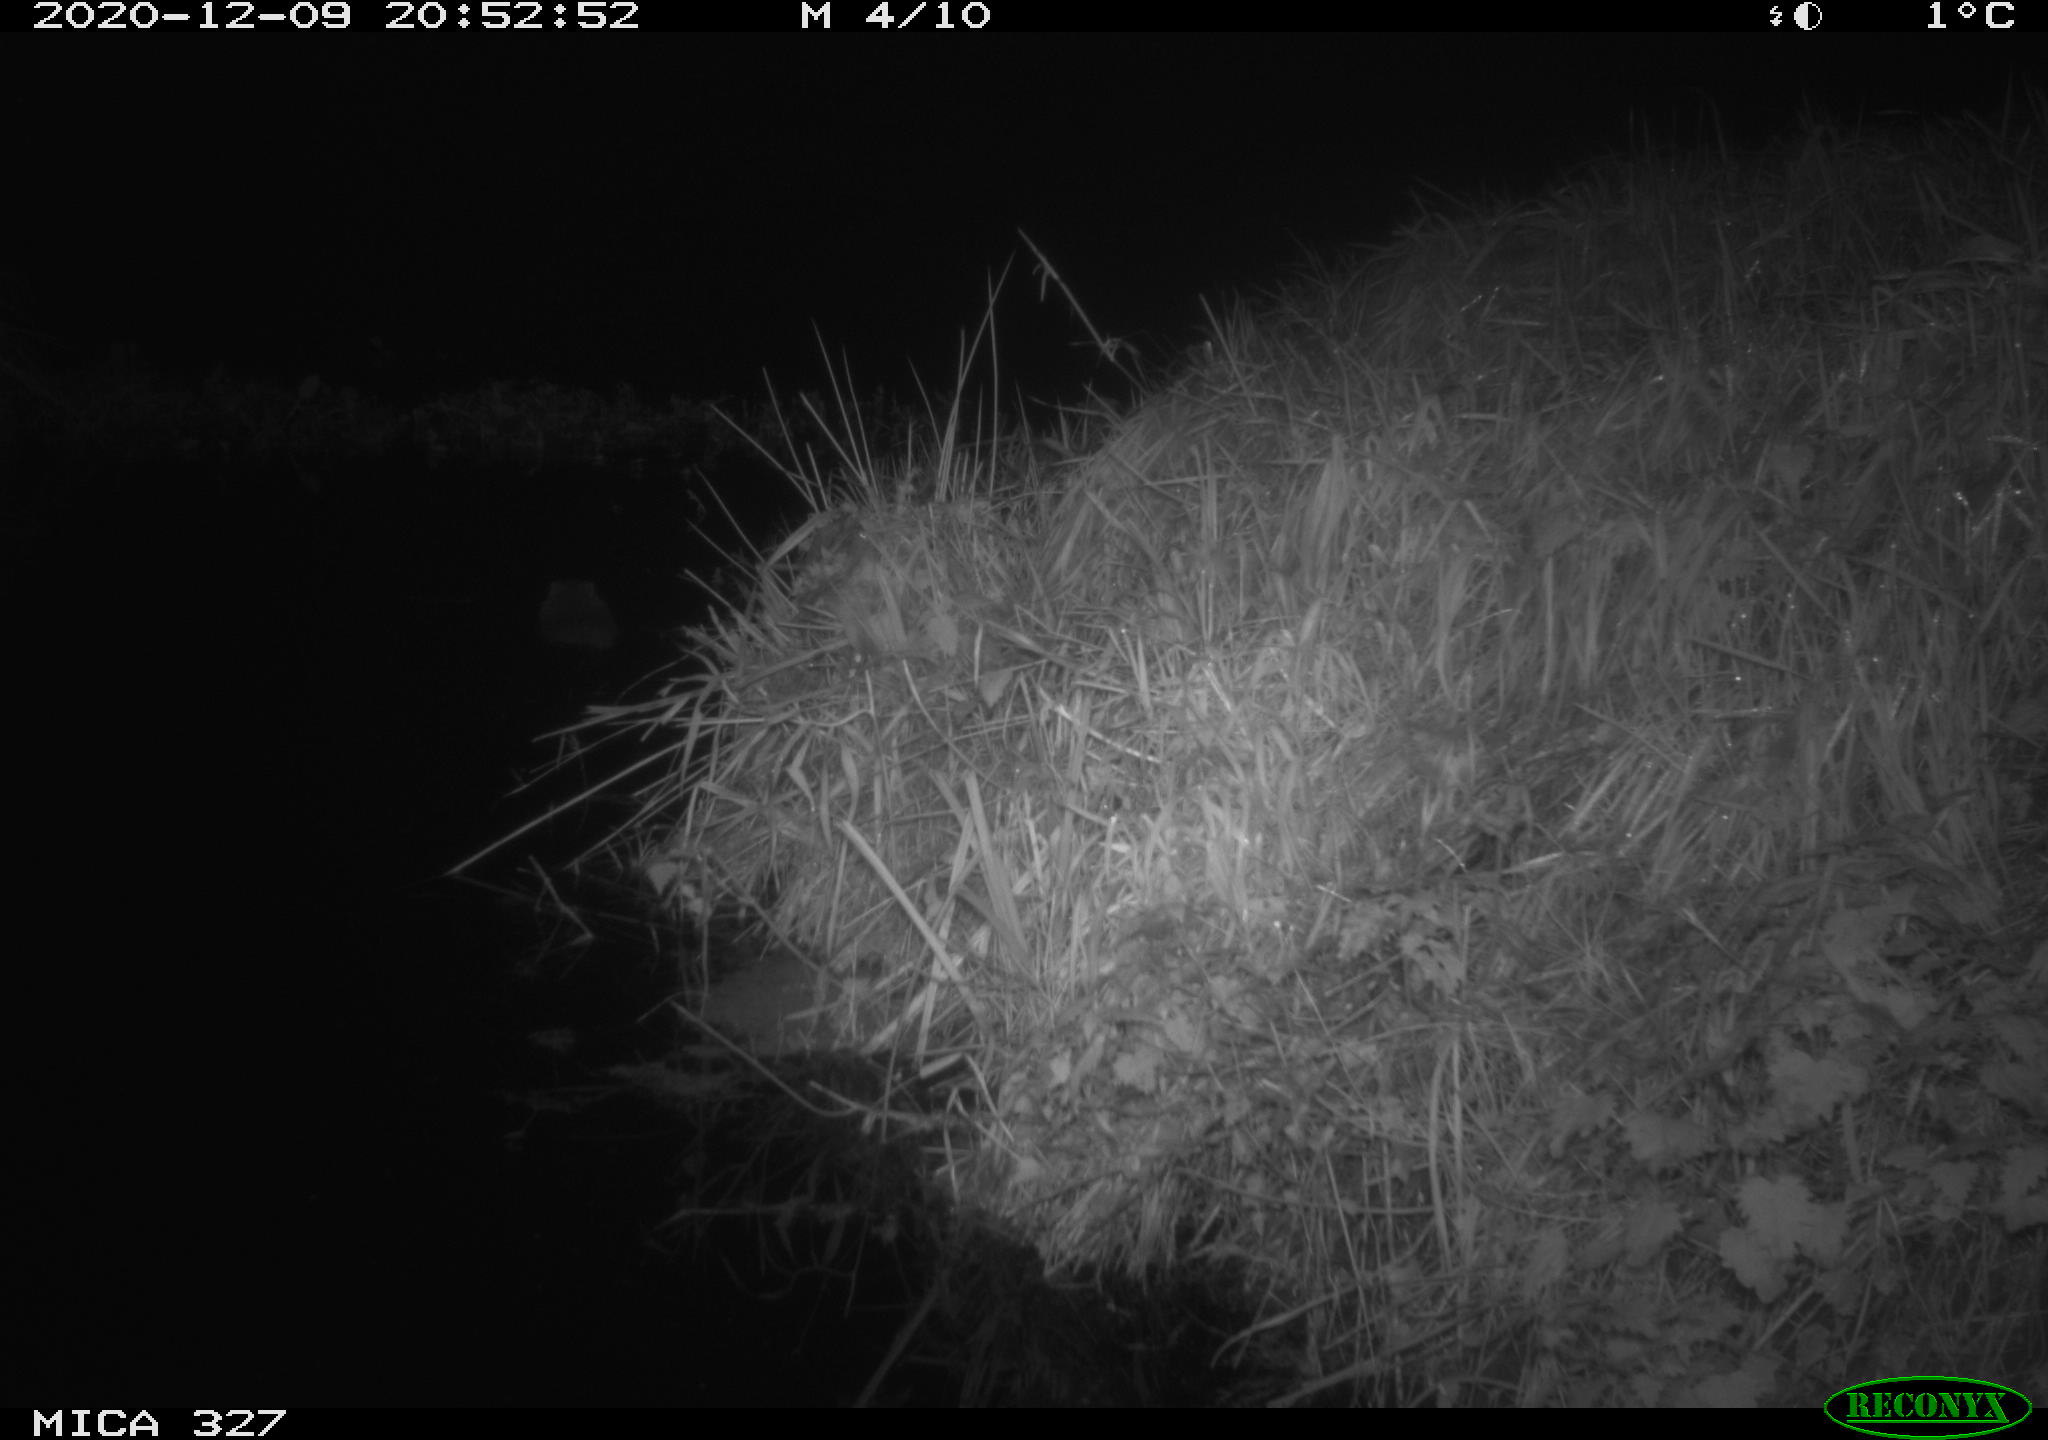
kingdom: Animalia
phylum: Chordata
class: Mammalia
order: Rodentia
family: Myocastoridae
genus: Myocastor
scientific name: Myocastor coypus
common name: Coypu
